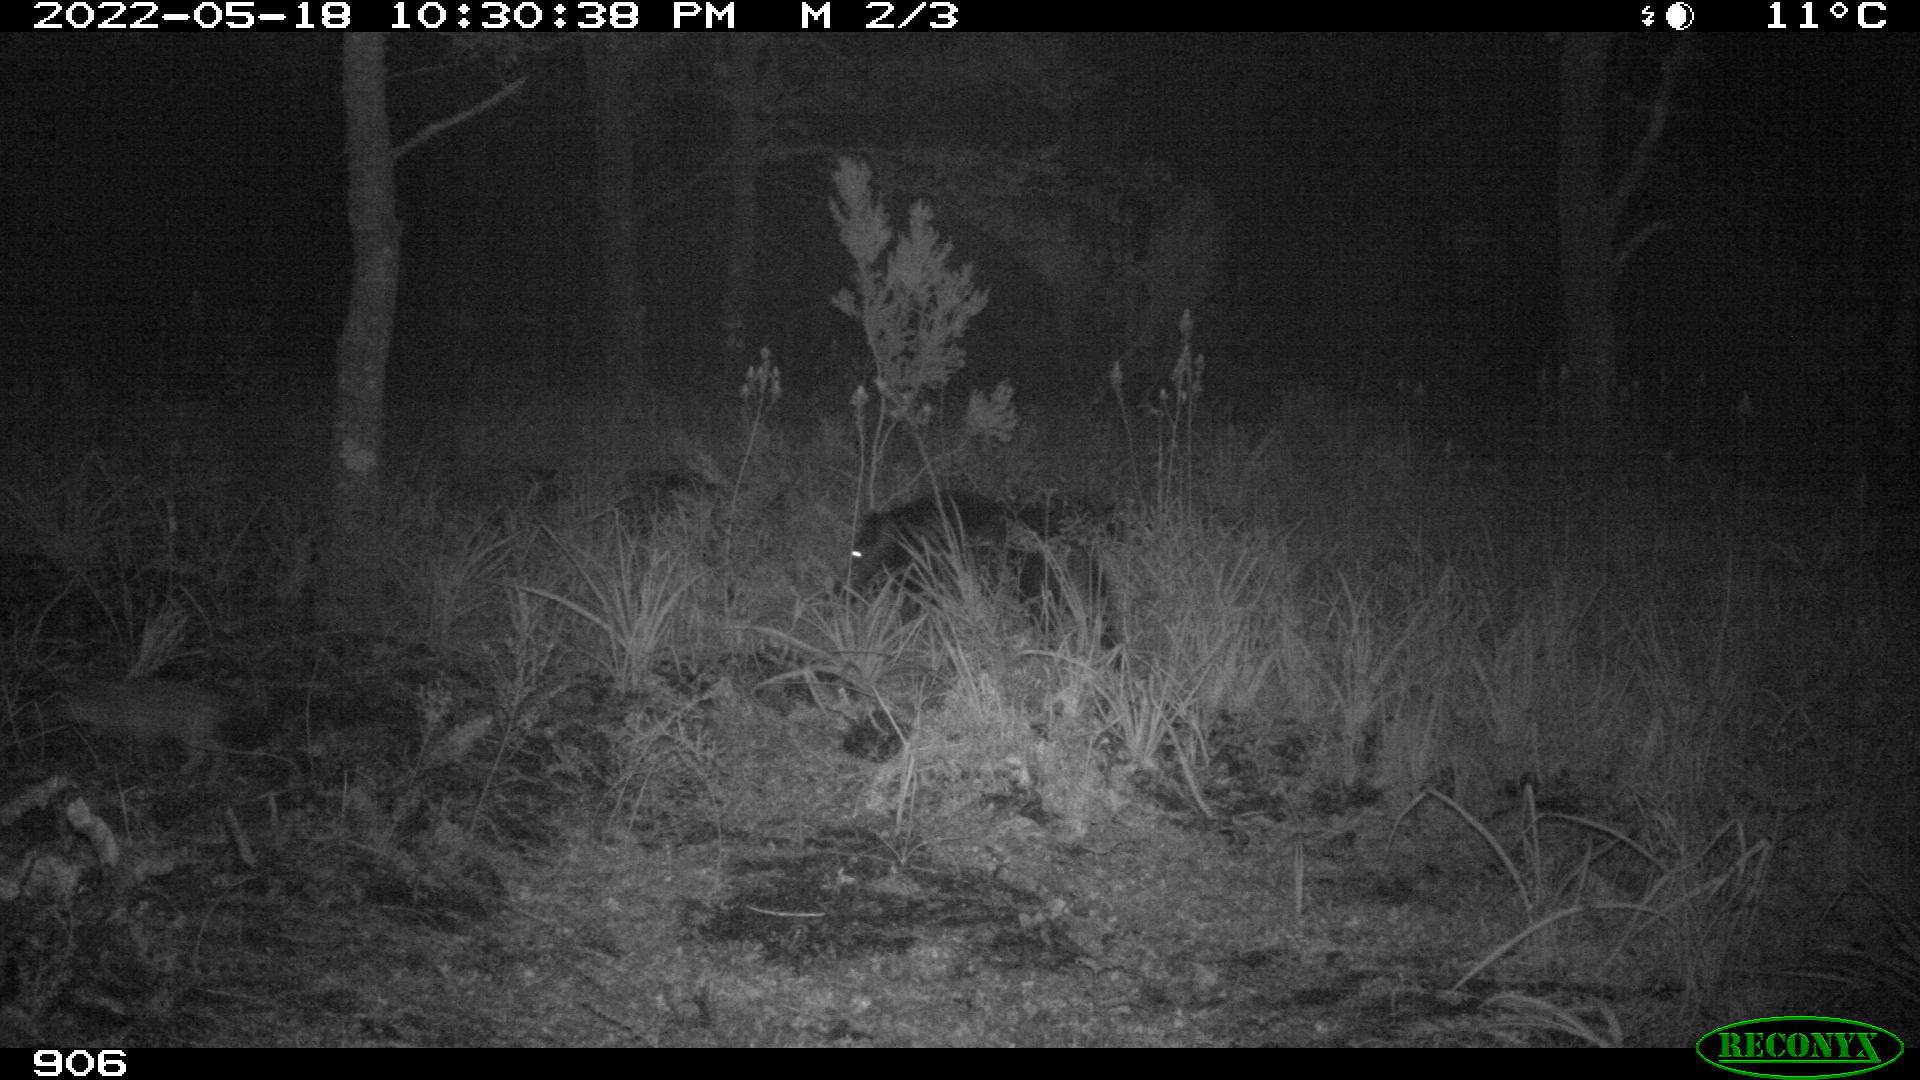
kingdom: Animalia
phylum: Chordata
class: Mammalia
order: Artiodactyla
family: Suidae
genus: Sus
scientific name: Sus scrofa
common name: Wild boar
